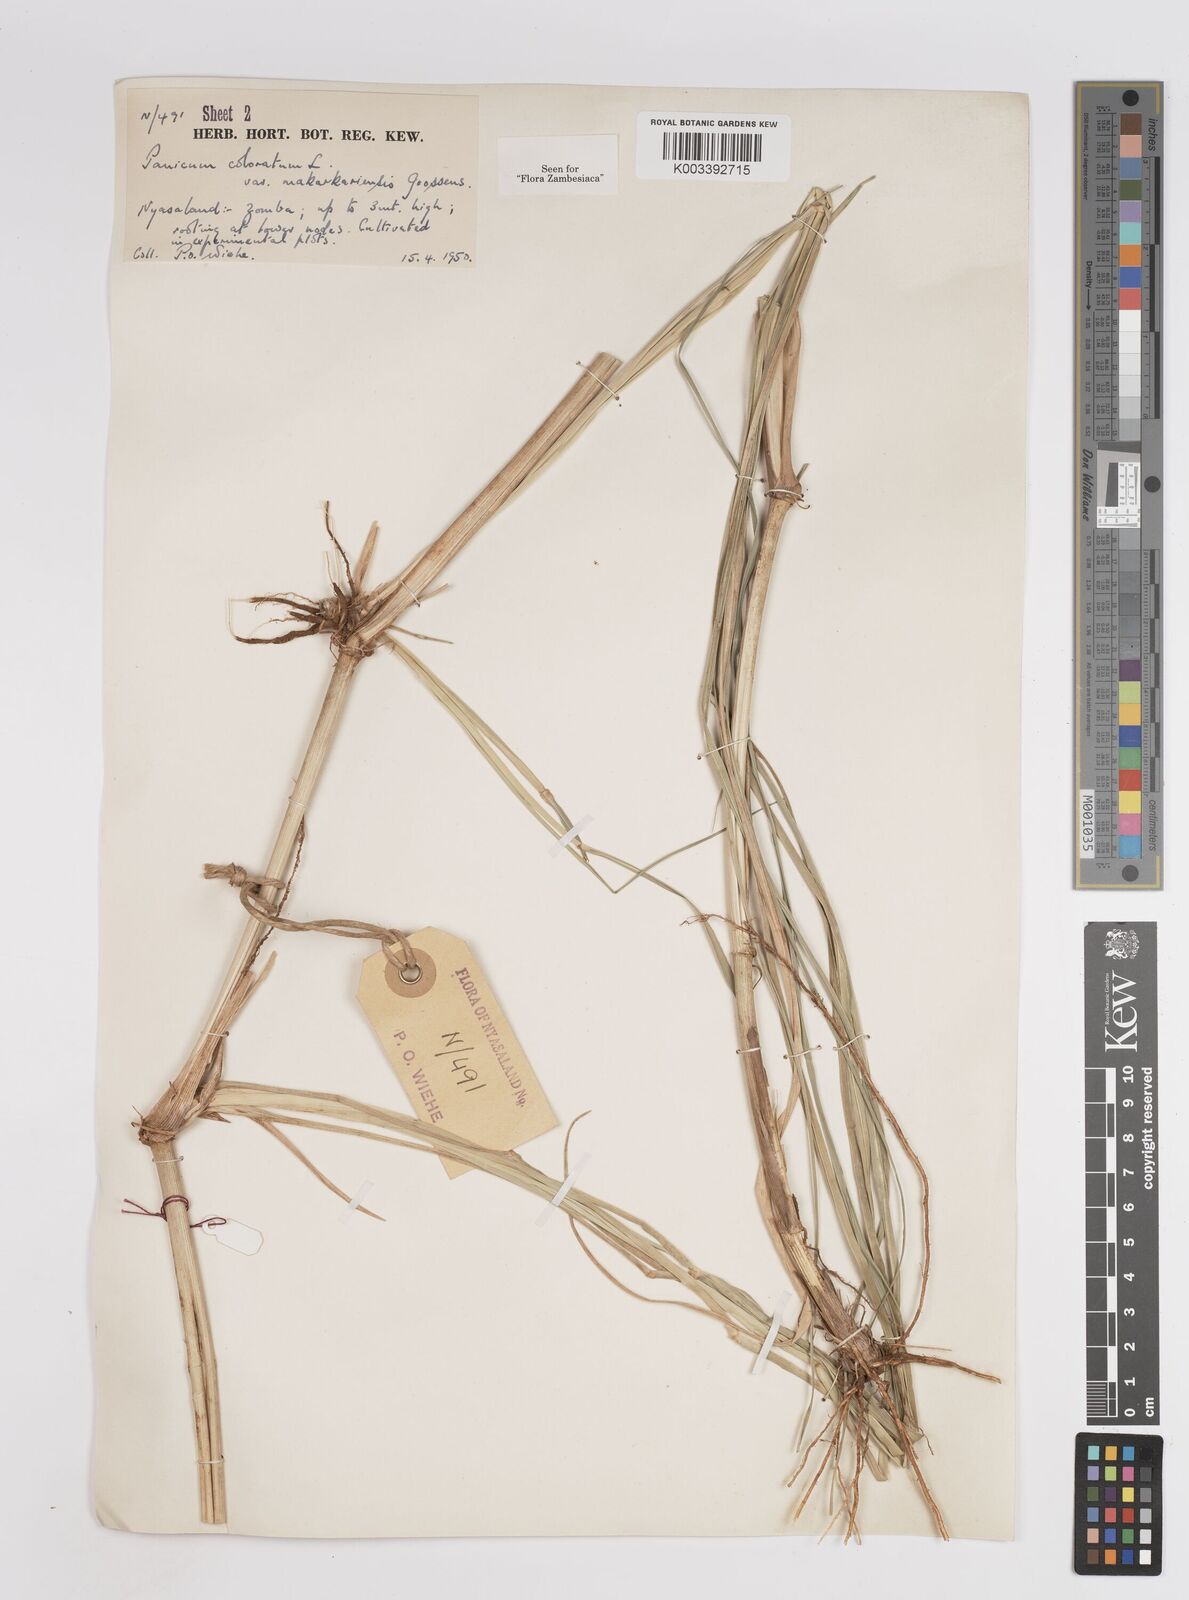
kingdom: Plantae
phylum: Tracheophyta
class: Liliopsida
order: Poales
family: Poaceae
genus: Panicum
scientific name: Panicum coloratum
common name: Kleingrass
